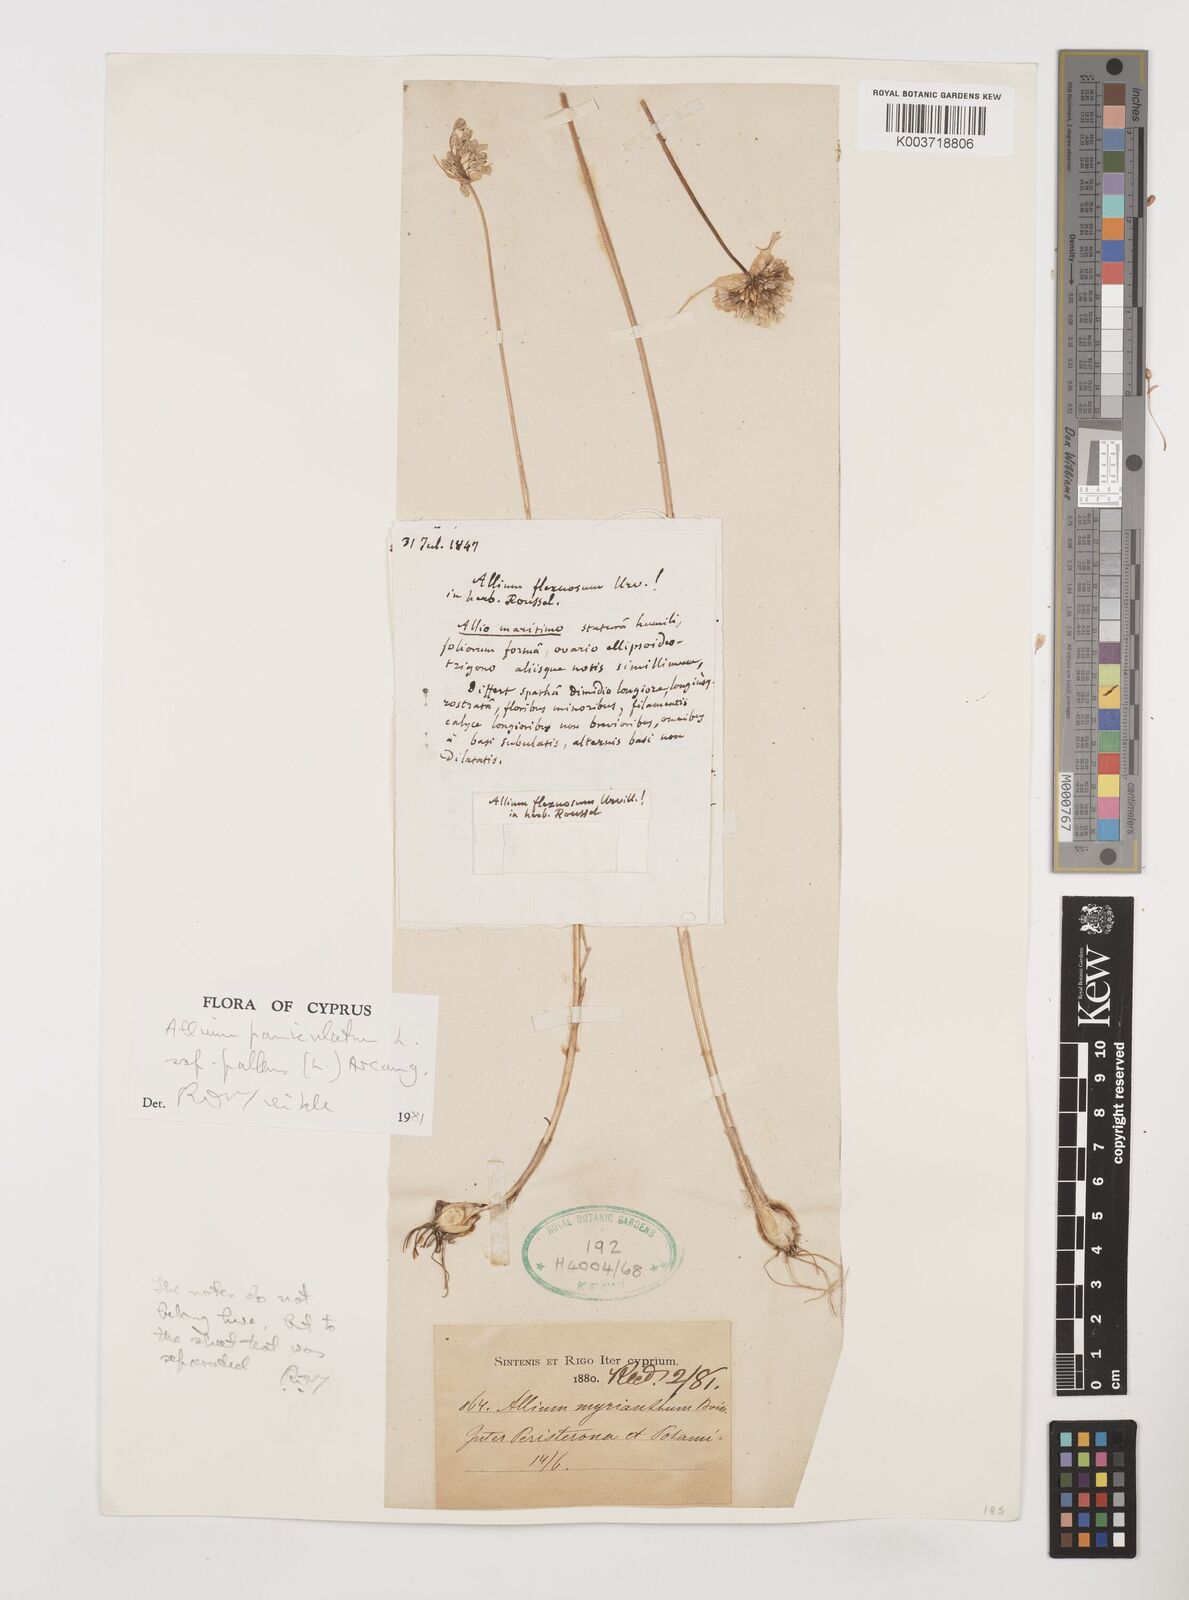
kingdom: Plantae
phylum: Tracheophyta
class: Liliopsida
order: Asparagales
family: Amaryllidaceae
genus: Allium
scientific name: Allium paniculatum
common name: Pale garlic
